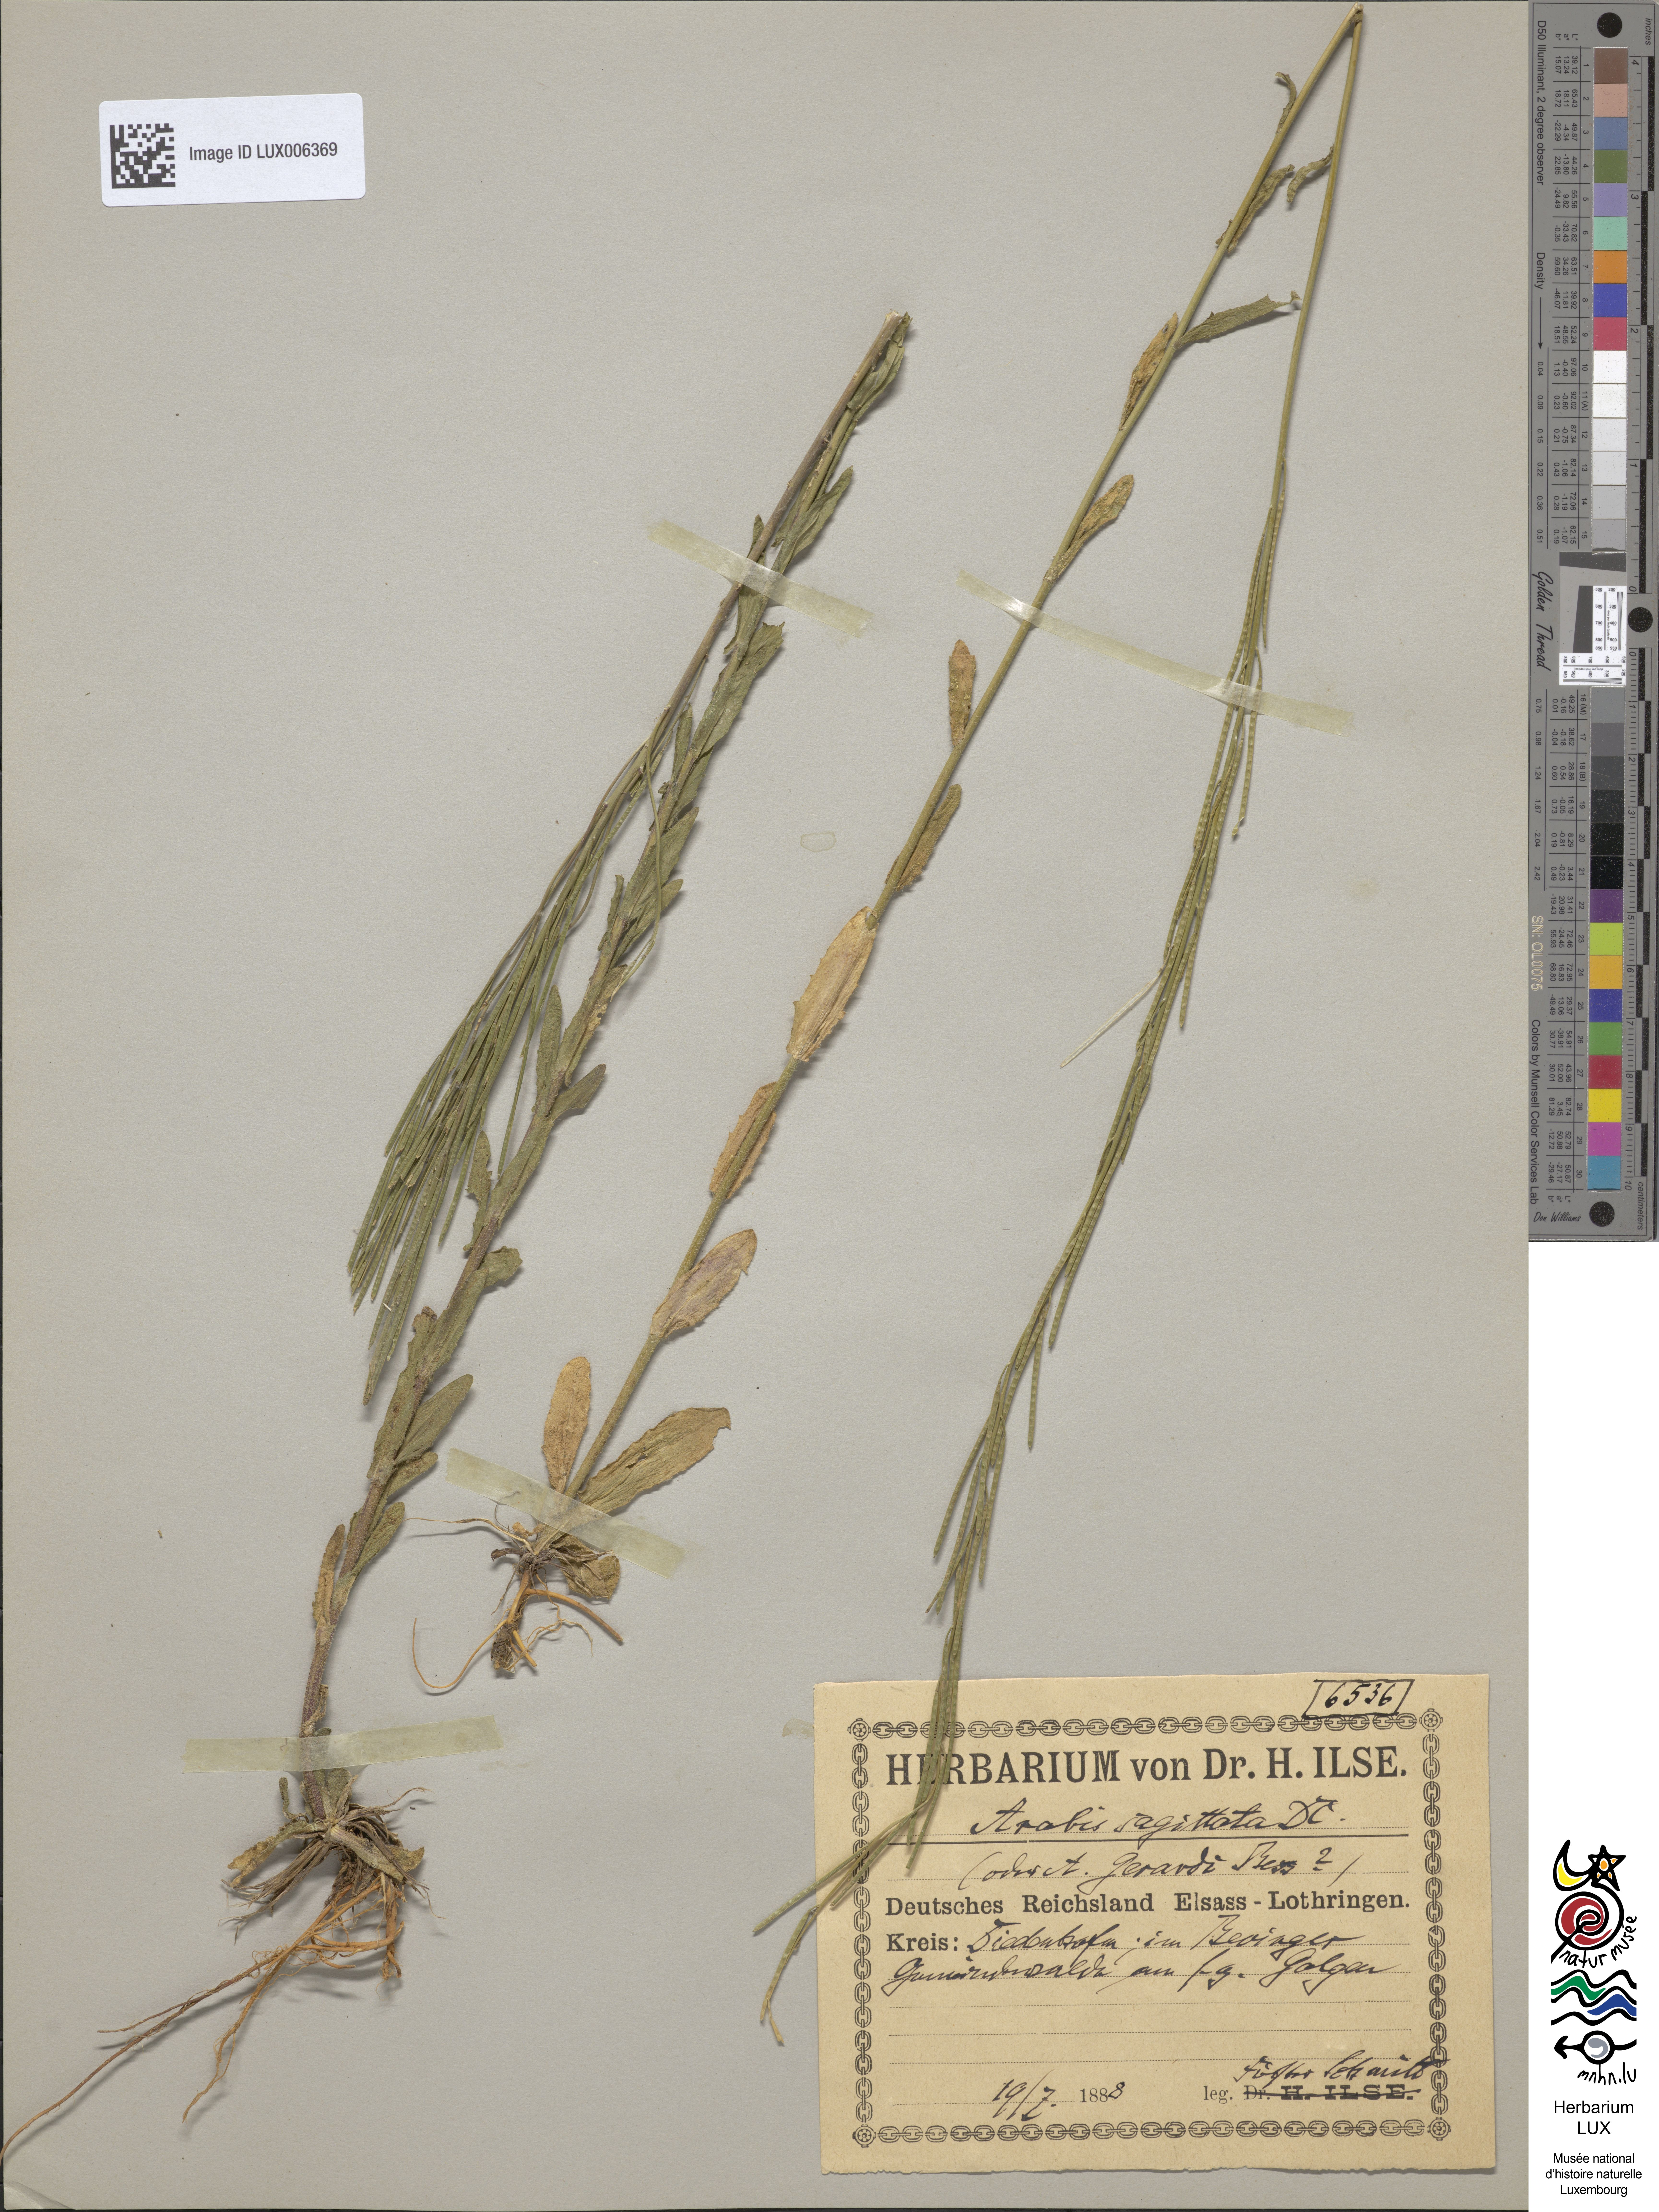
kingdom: Plantae
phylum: Tracheophyta
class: Magnoliopsida
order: Brassicales
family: Brassicaceae
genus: Arabis
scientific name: Arabis sagittata
